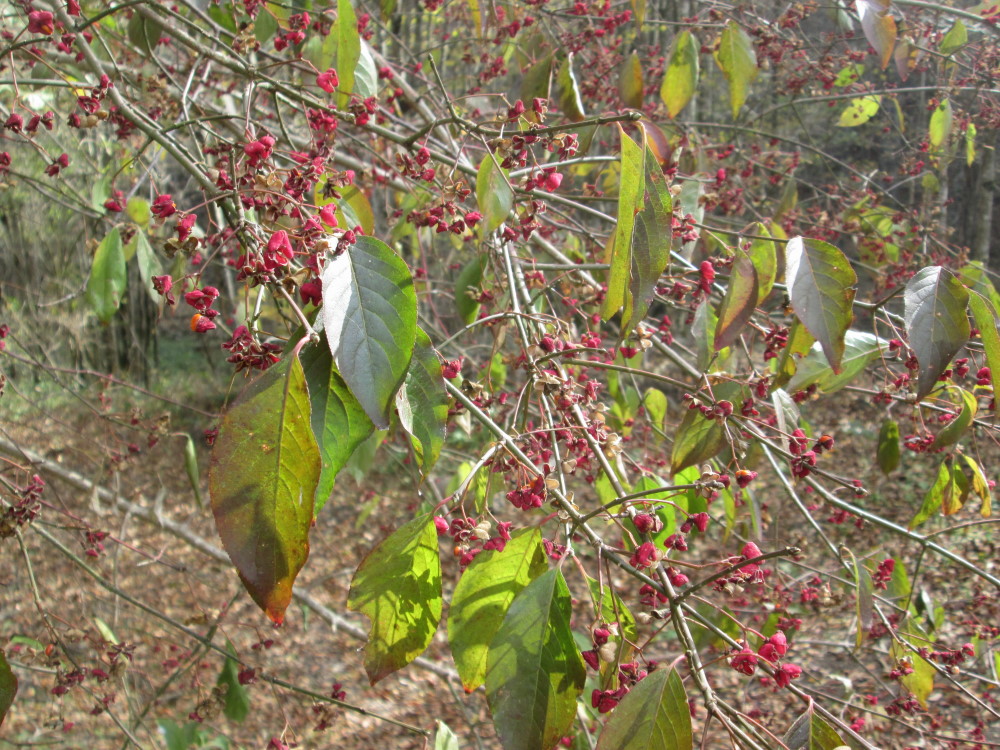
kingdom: Plantae
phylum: Tracheophyta
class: Magnoliopsida
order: Celastrales
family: Celastraceae
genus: Euonymus
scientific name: Euonymus europaeus
